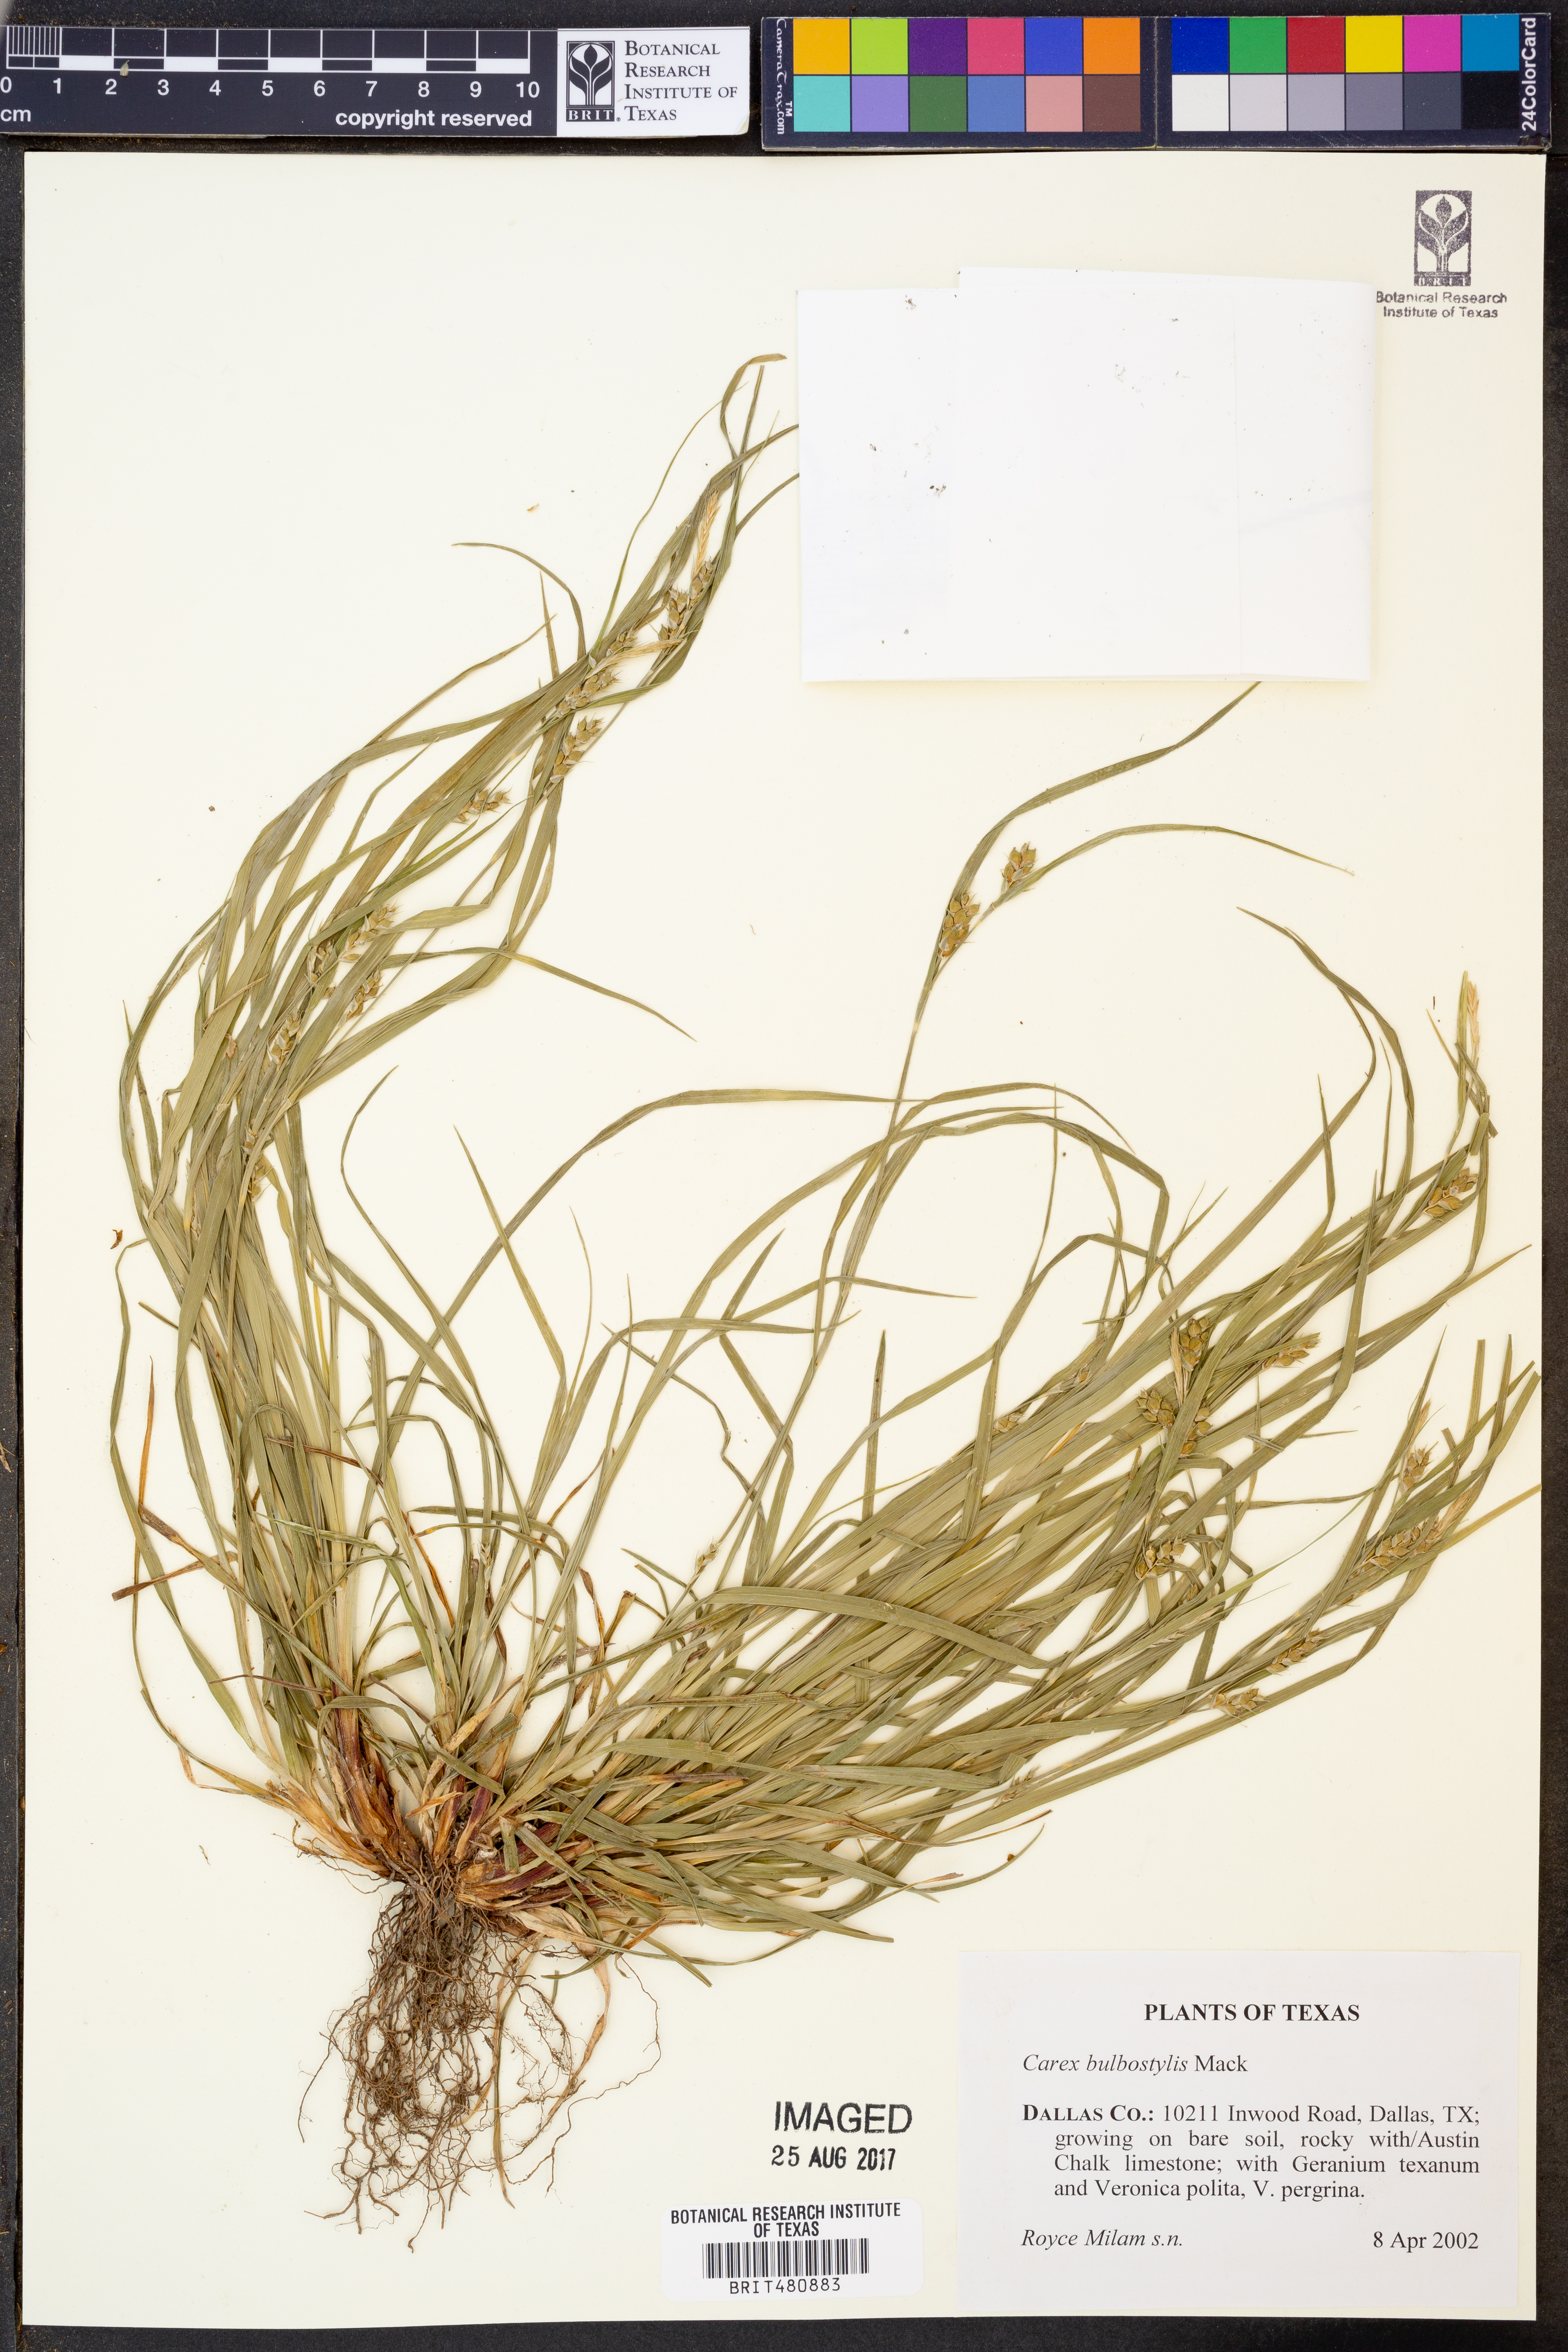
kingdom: Plantae
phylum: Tracheophyta
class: Liliopsida
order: Poales
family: Cyperaceae
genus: Carex
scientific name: Carex bulbostylis
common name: Eastern narrowleaf sedge
